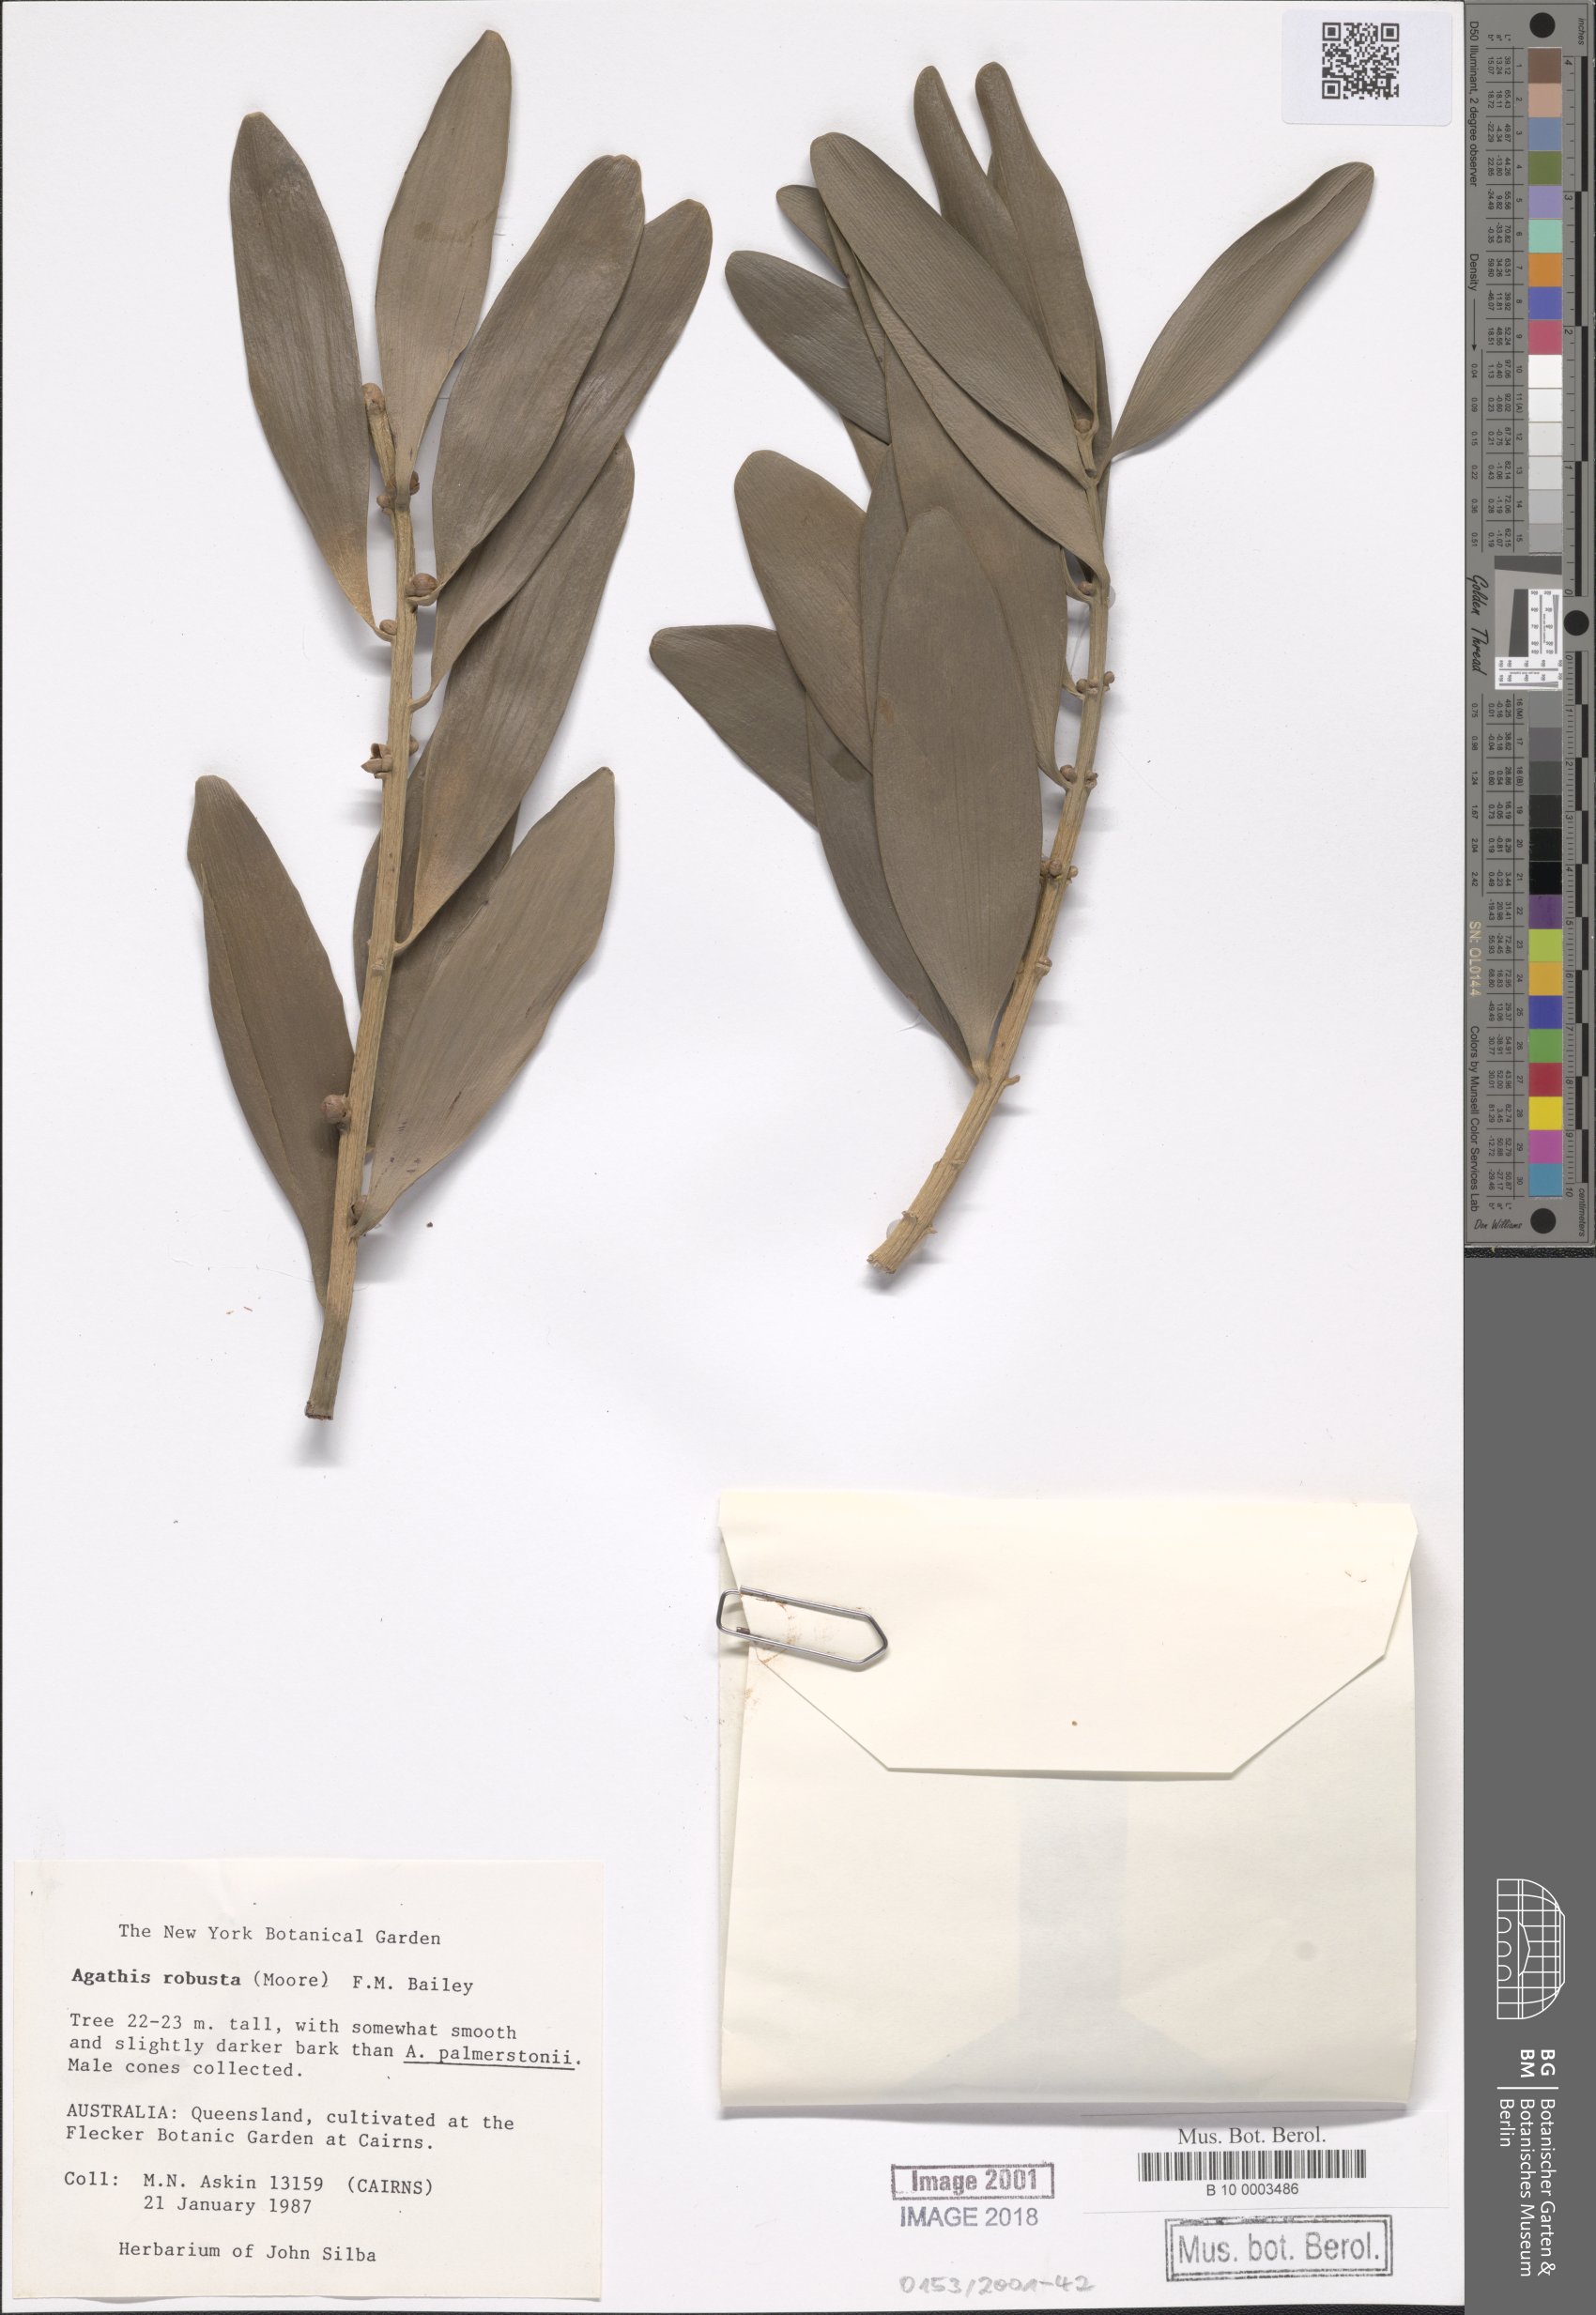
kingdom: Plantae
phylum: Tracheophyta
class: Pinopsida
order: Pinales
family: Araucariaceae
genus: Agathis
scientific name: Agathis robusta
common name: Australian-kauri
